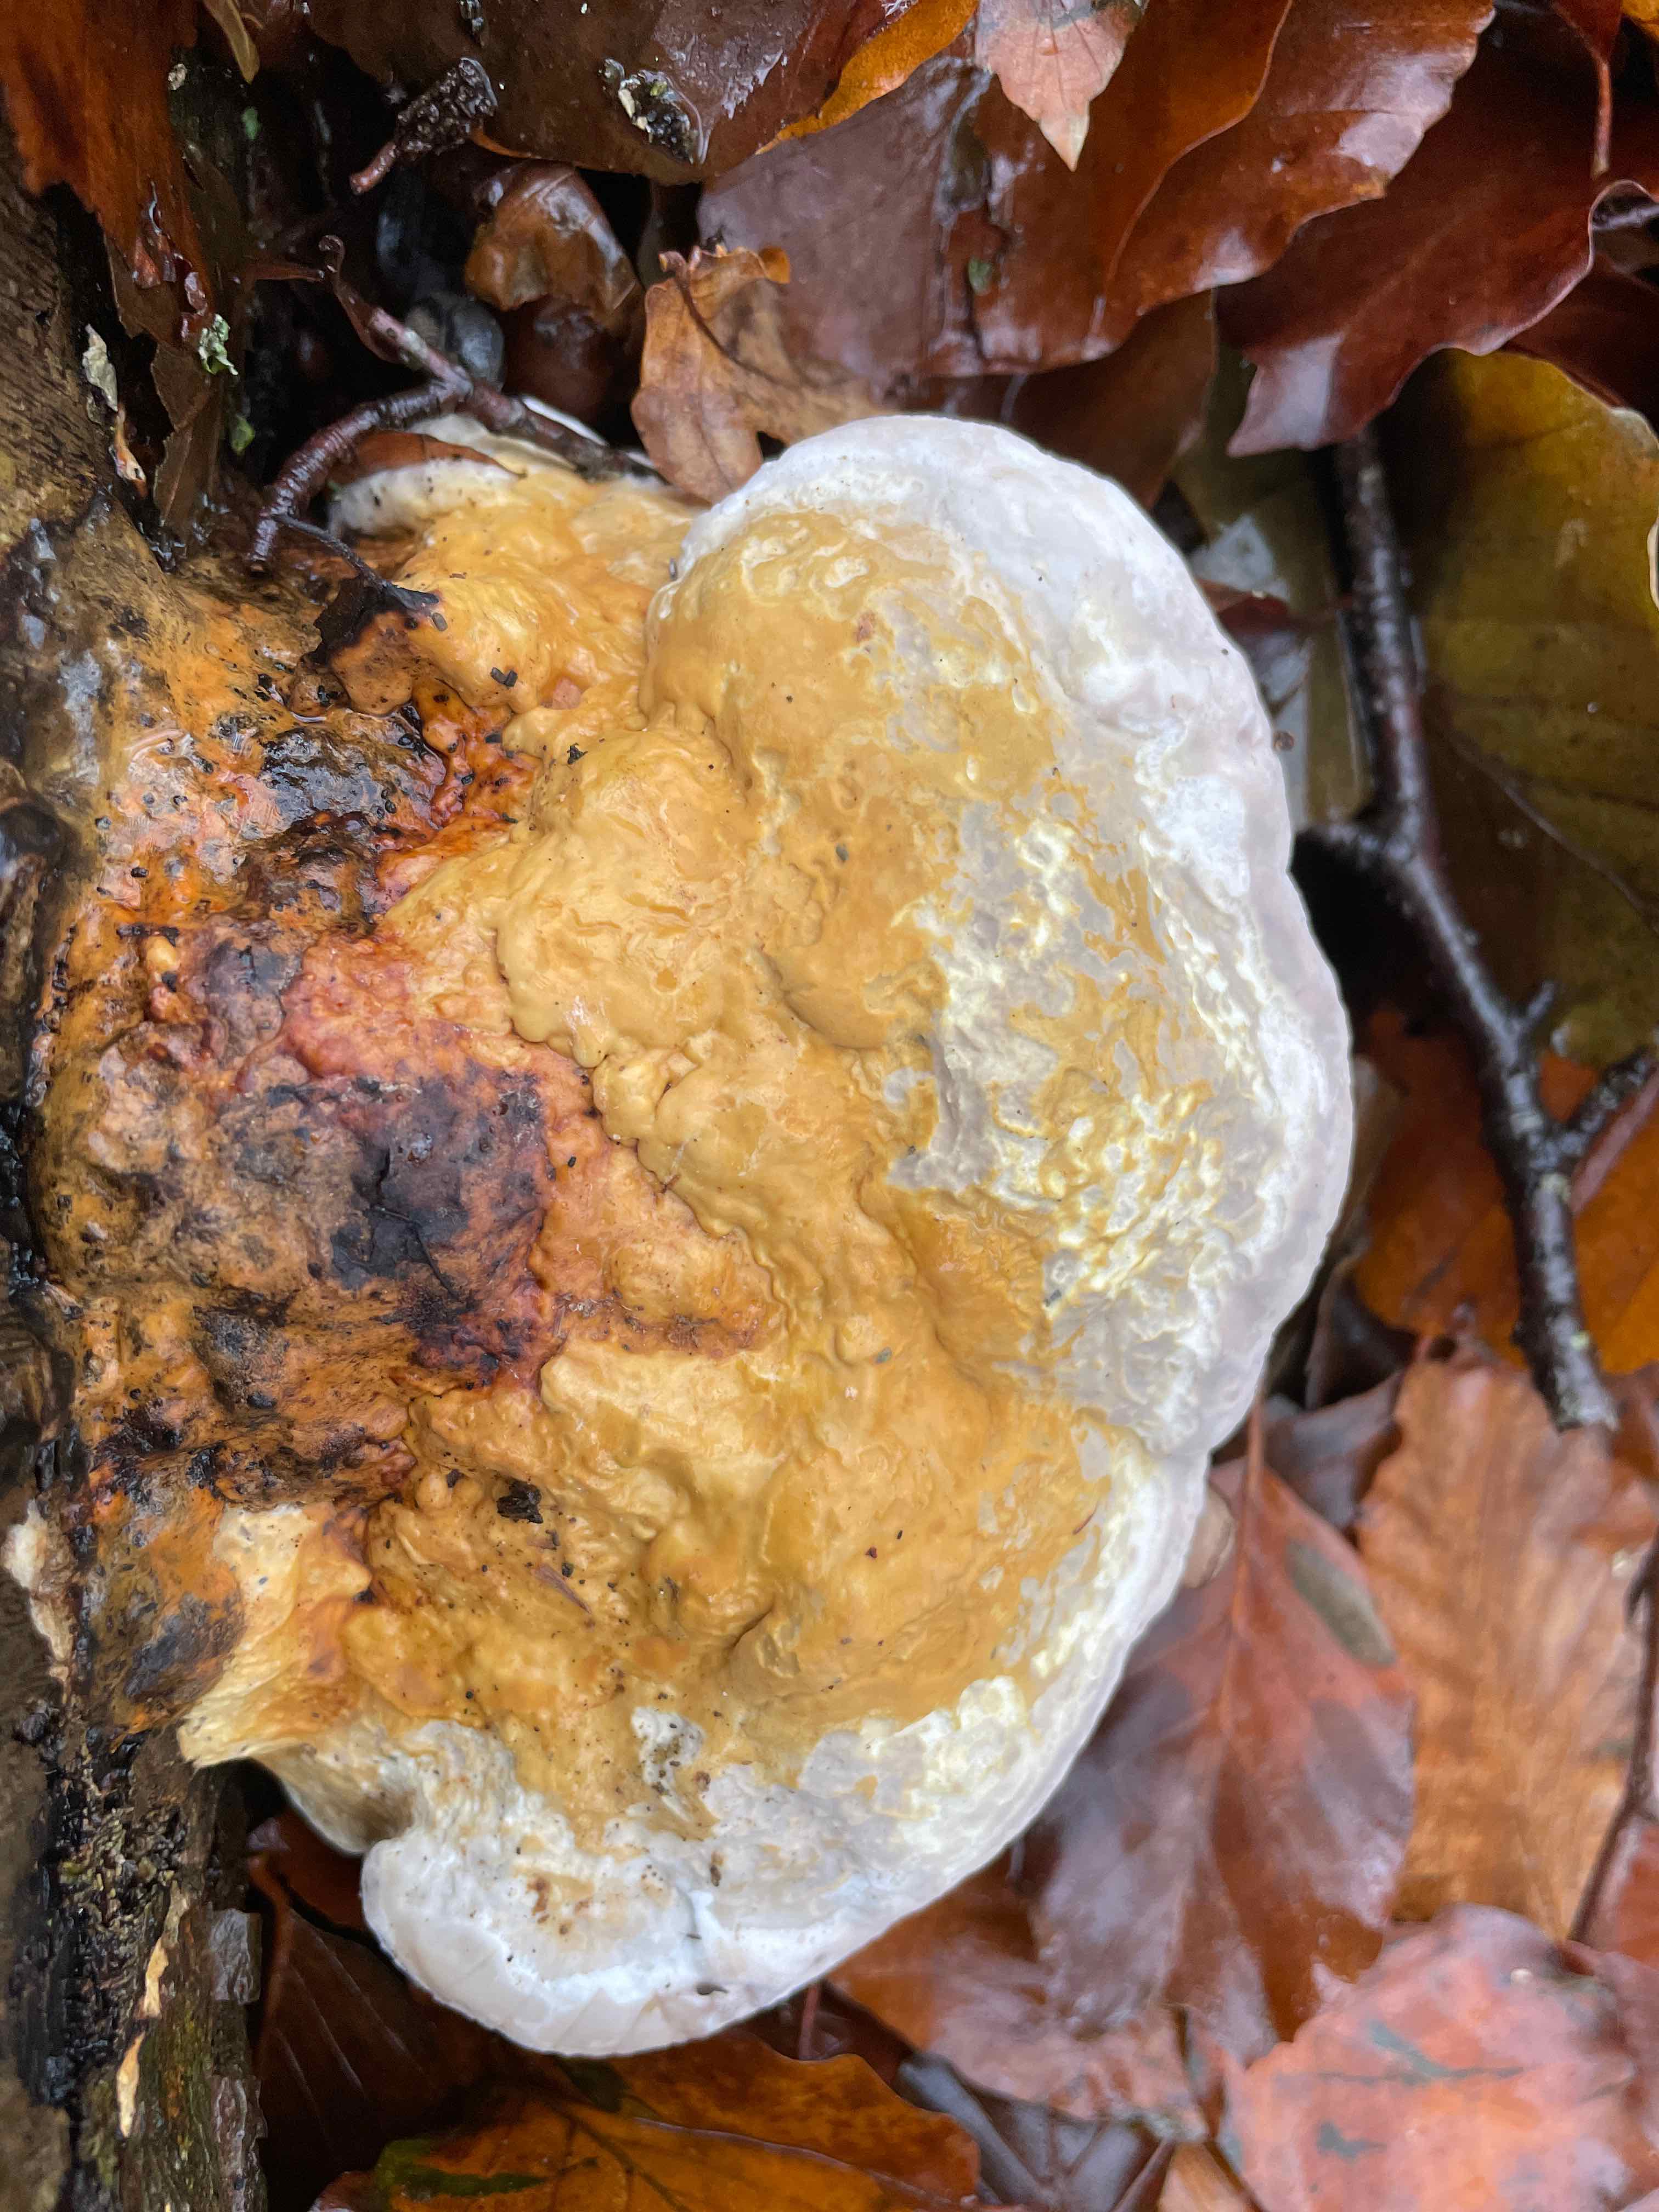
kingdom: Fungi
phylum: Basidiomycota
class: Agaricomycetes
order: Polyporales
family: Fomitopsidaceae
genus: Fomitopsis
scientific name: Fomitopsis pinicola
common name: randbæltet hovporesvamp
